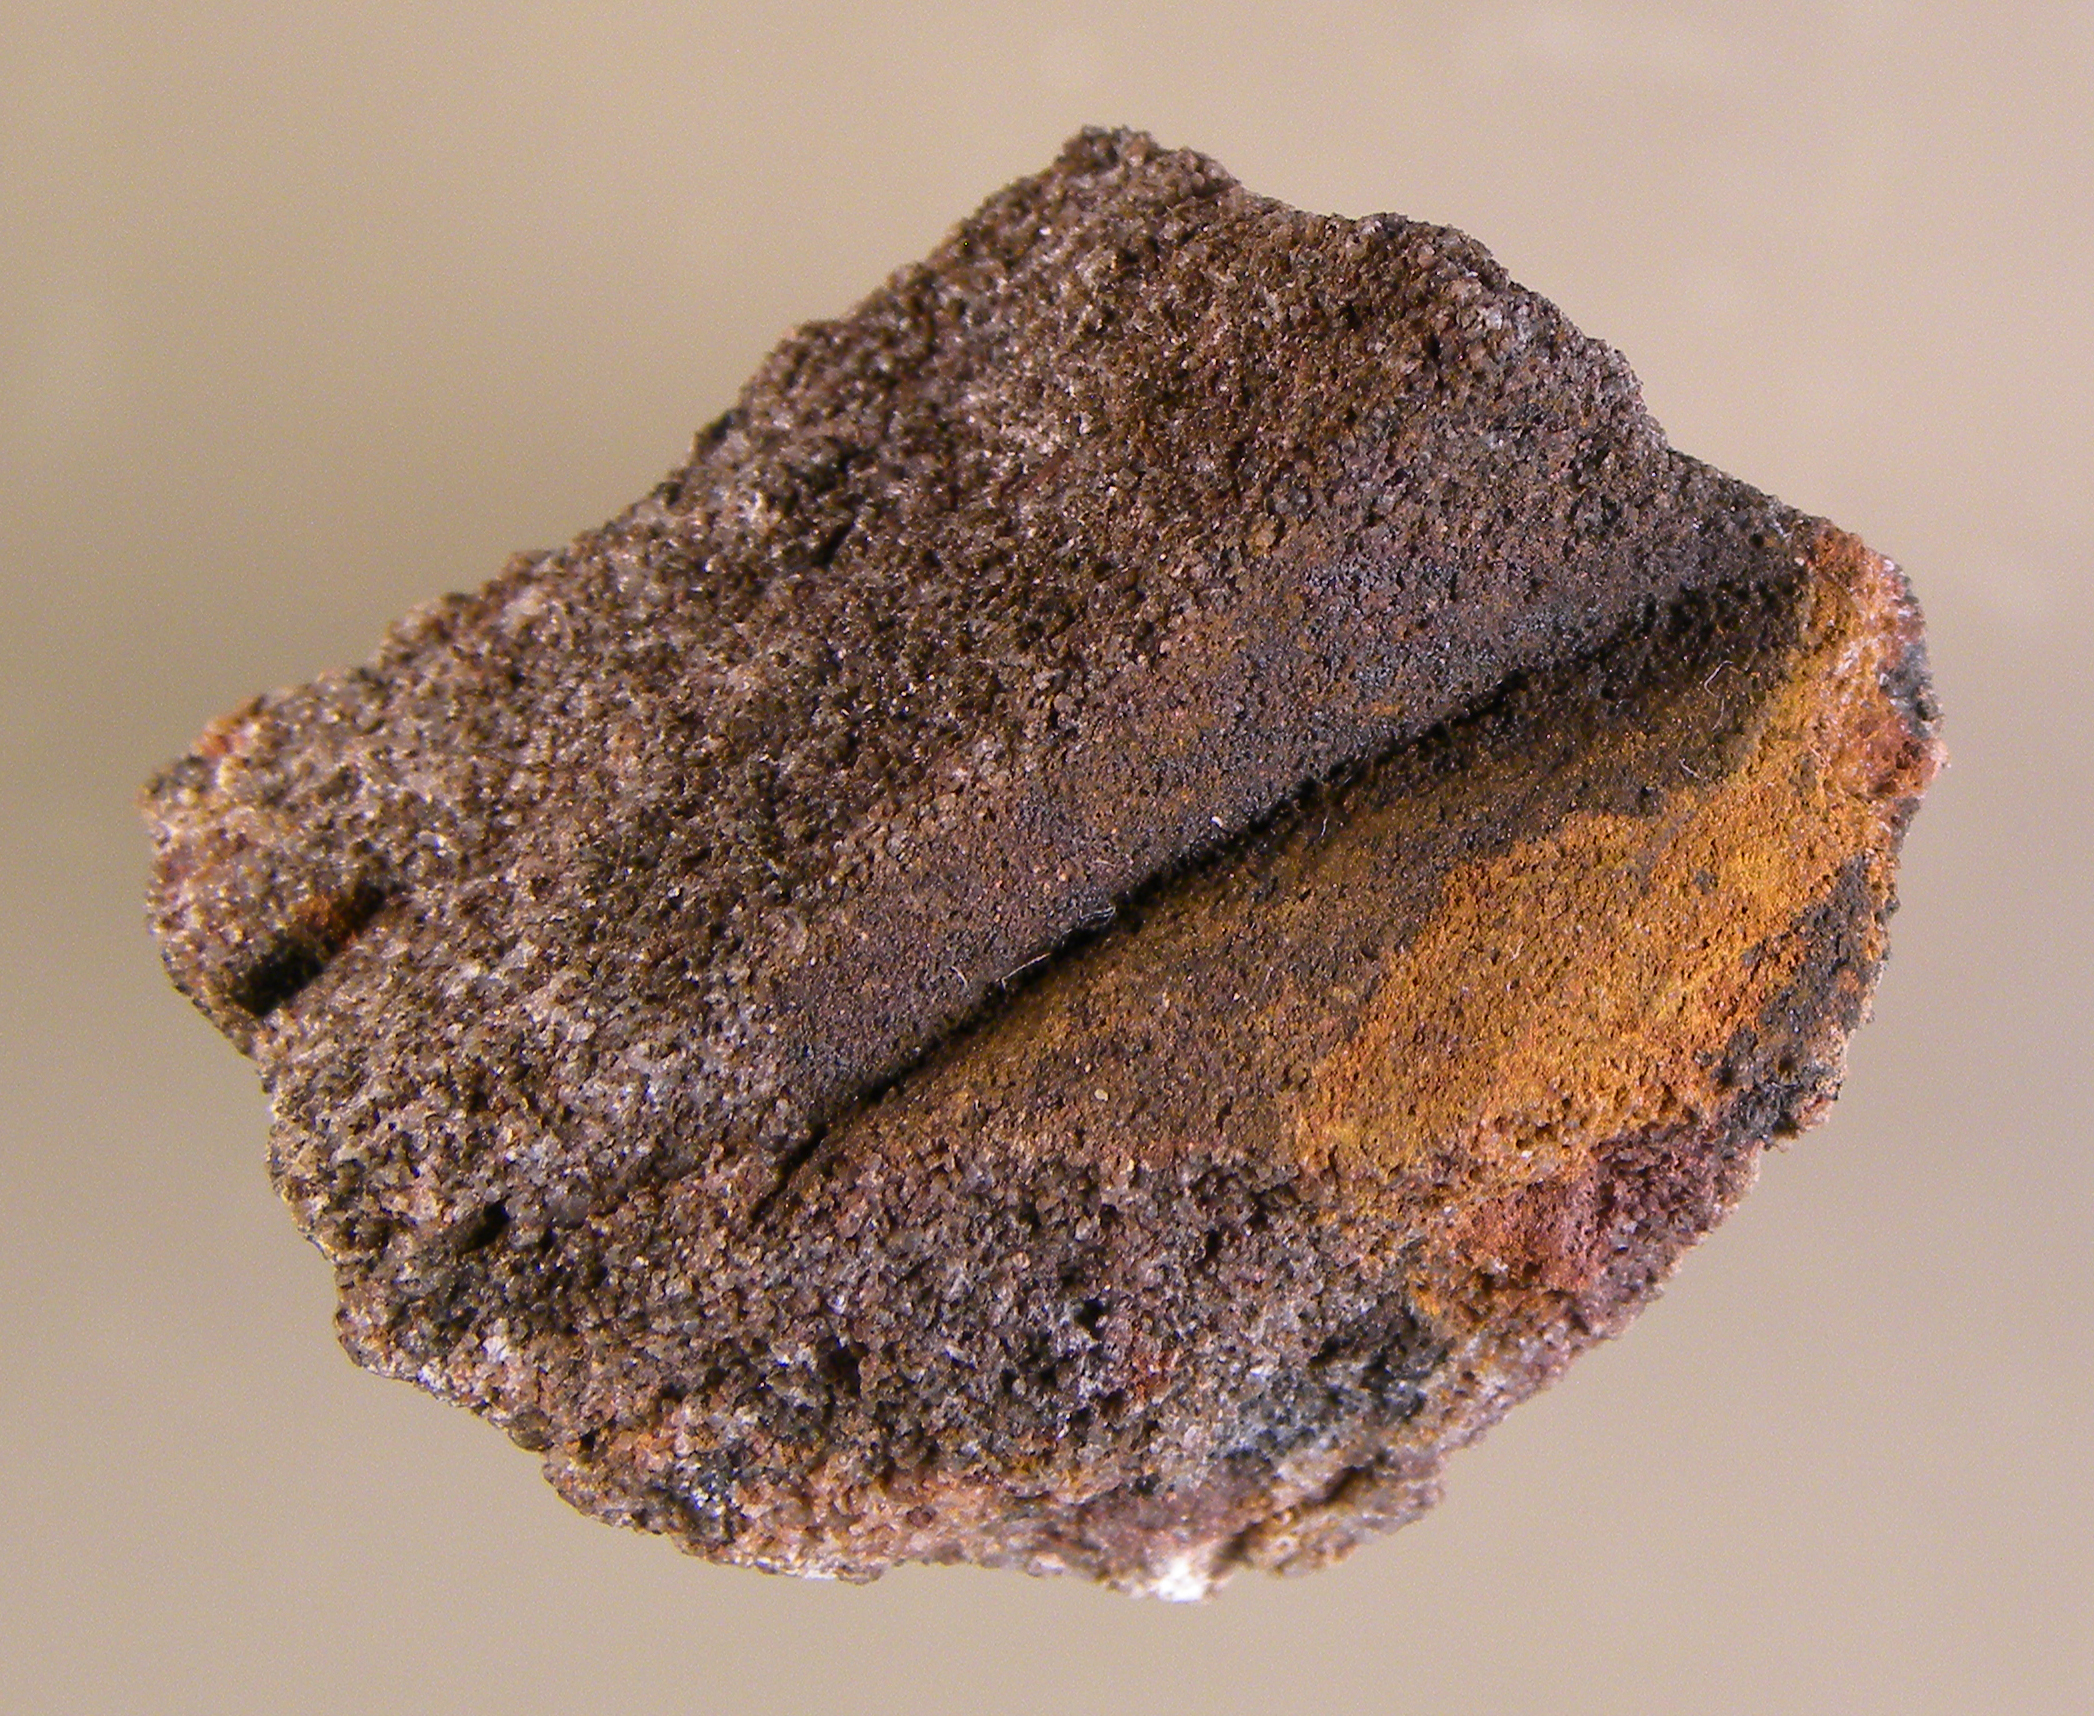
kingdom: Animalia
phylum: Mollusca
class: Bivalvia
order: Modiomorphida
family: Modiomorphidae
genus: Goniophora
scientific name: Goniophora
